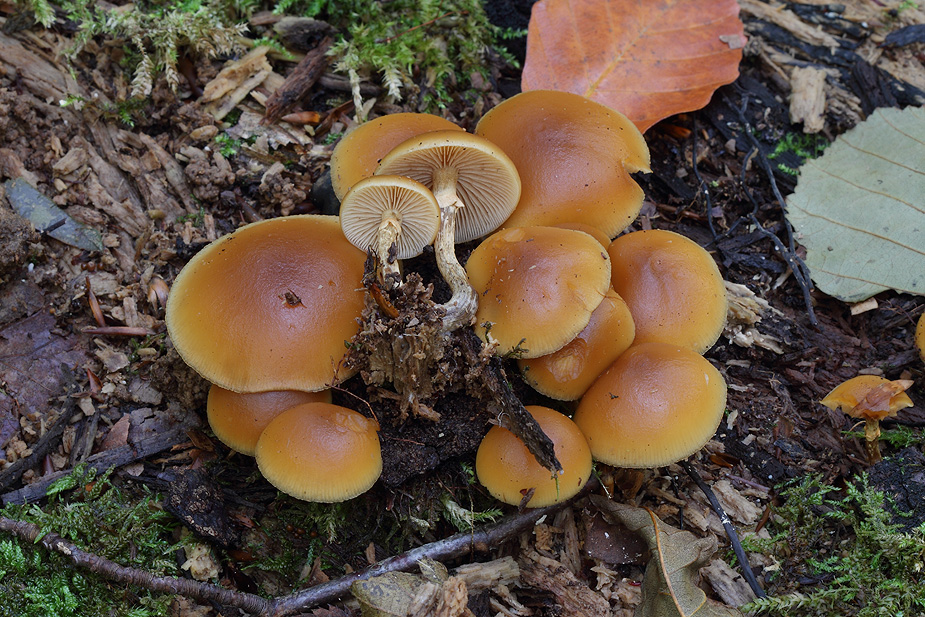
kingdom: Fungi
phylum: Basidiomycota
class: Agaricomycetes
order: Agaricales
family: Hymenogastraceae
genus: Galerina
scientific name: Galerina marginata
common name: randbæltet hjelmhat
